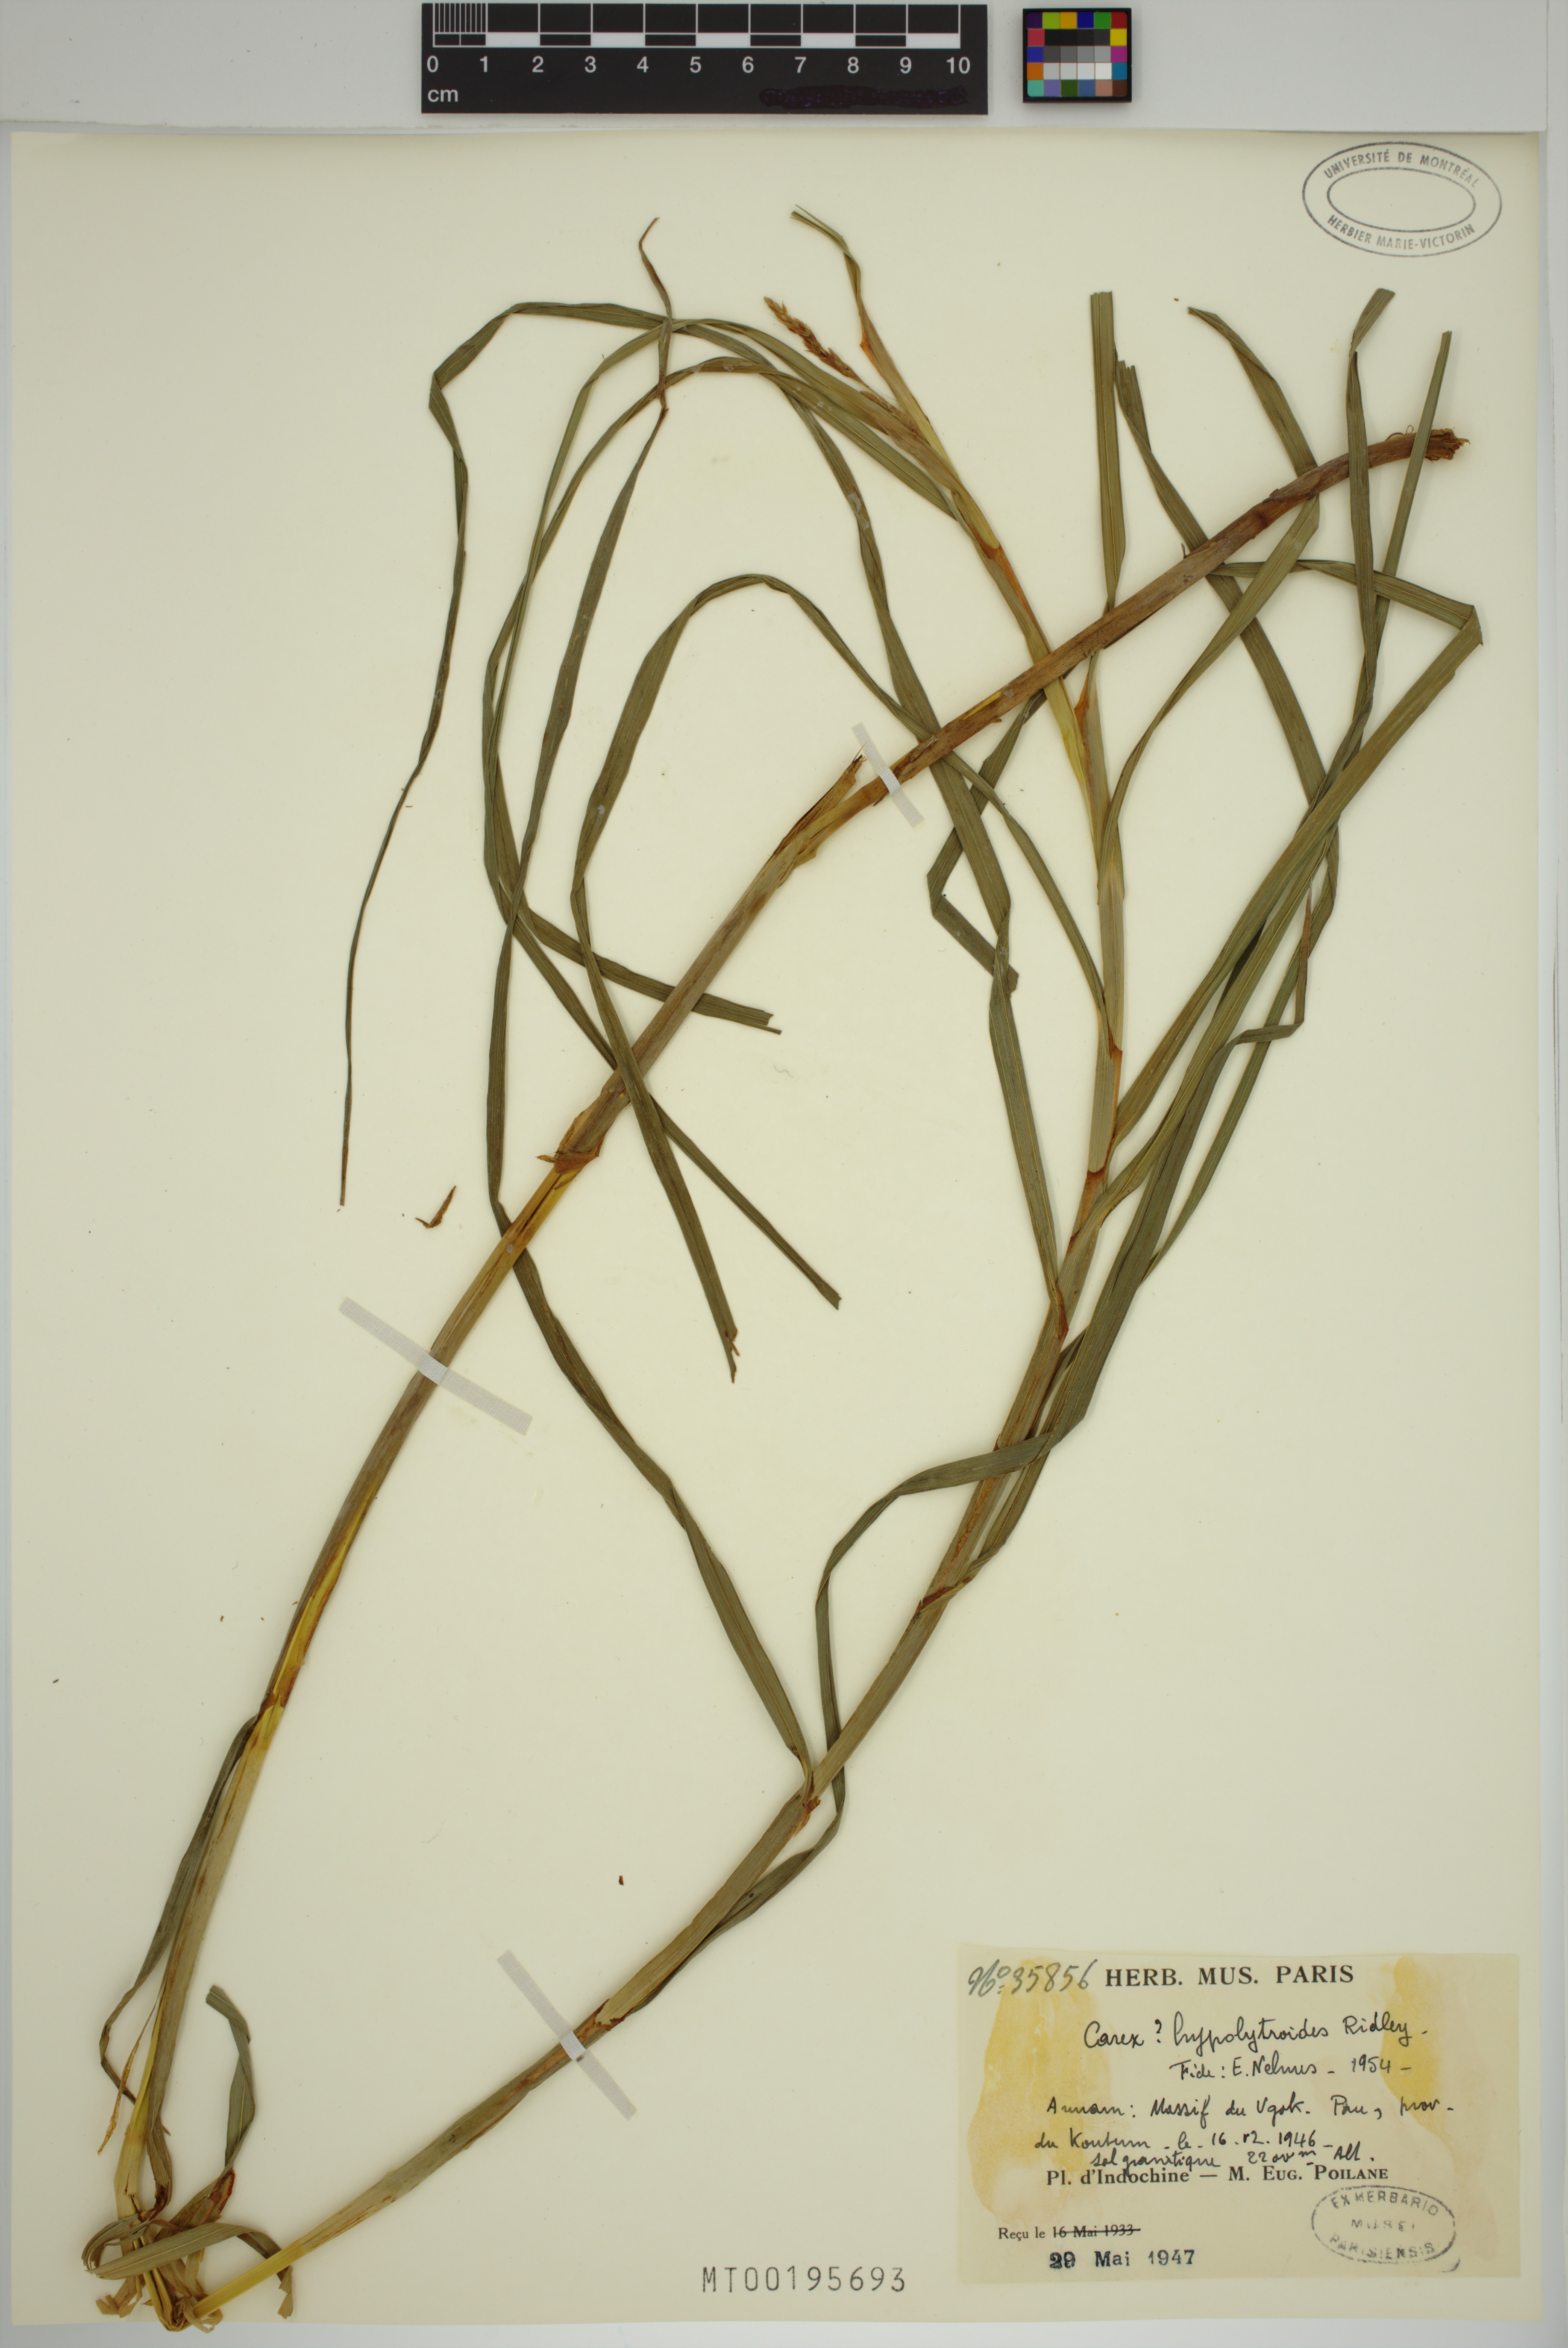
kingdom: Plantae
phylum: Tracheophyta
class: Liliopsida
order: Poales
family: Cyperaceae
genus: Carex
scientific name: Carex hypolytroides
